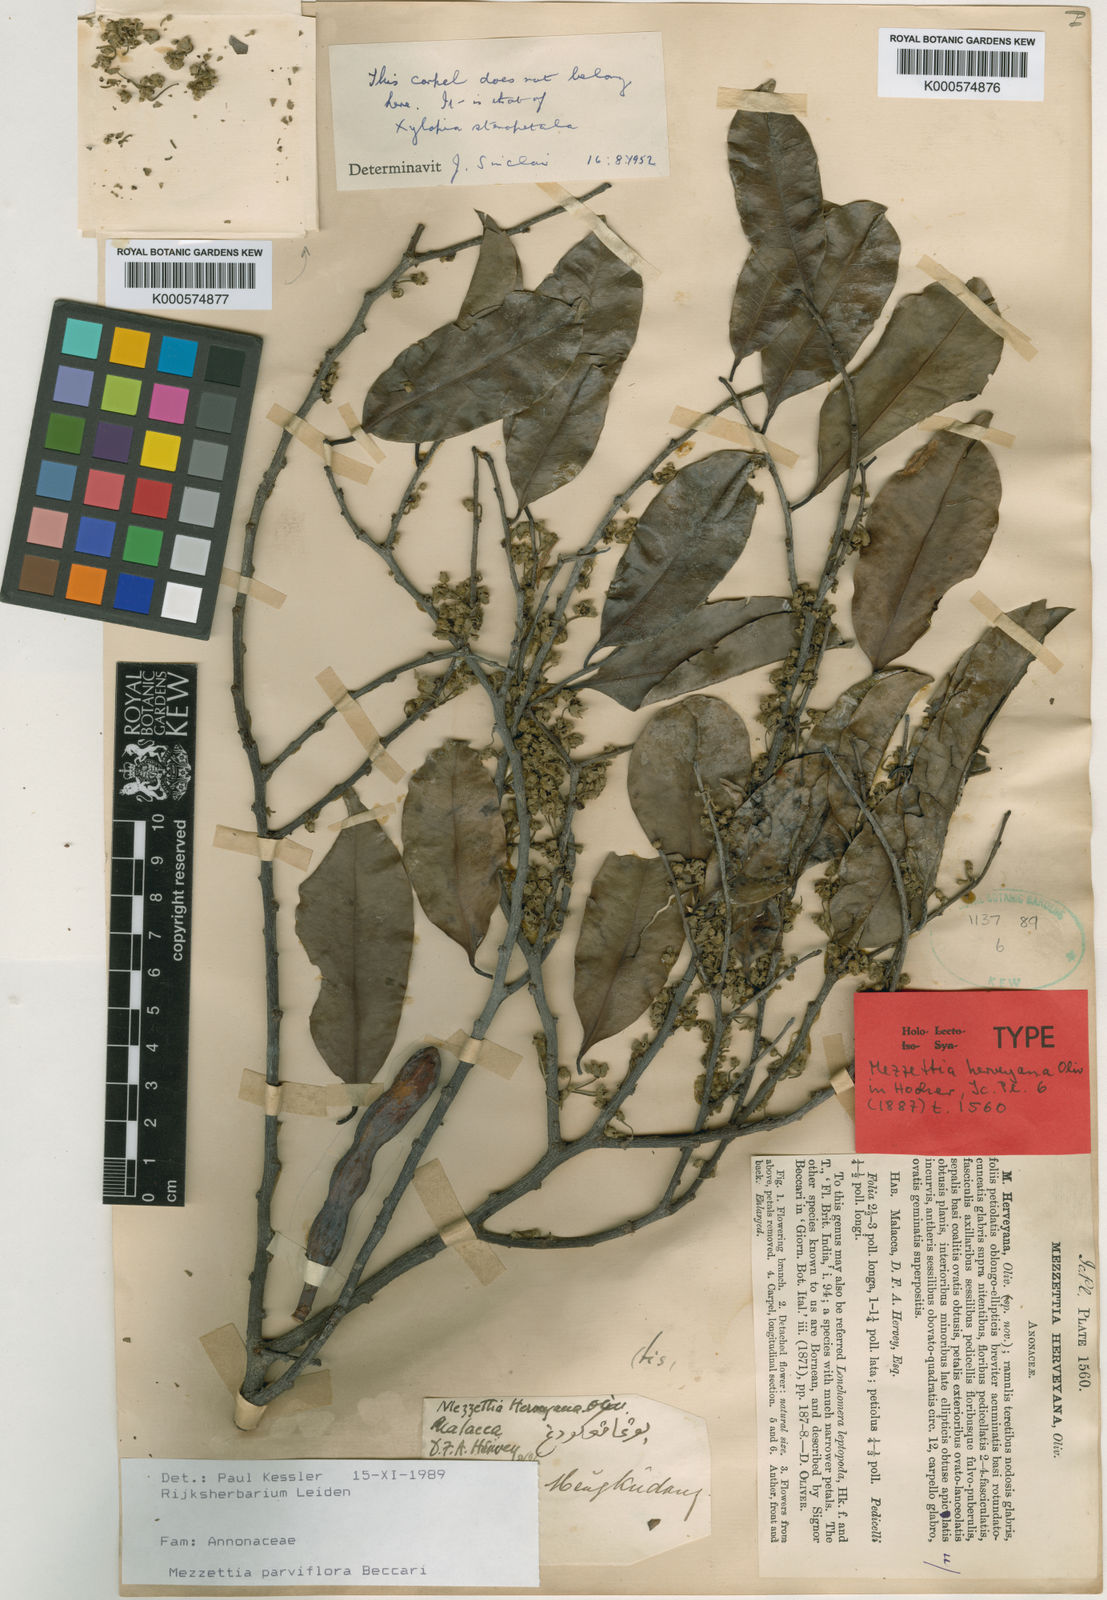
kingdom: Plantae
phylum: Tracheophyta
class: Magnoliopsida
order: Magnoliales
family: Annonaceae
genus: Mezzettia
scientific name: Mezzettia parviflora
